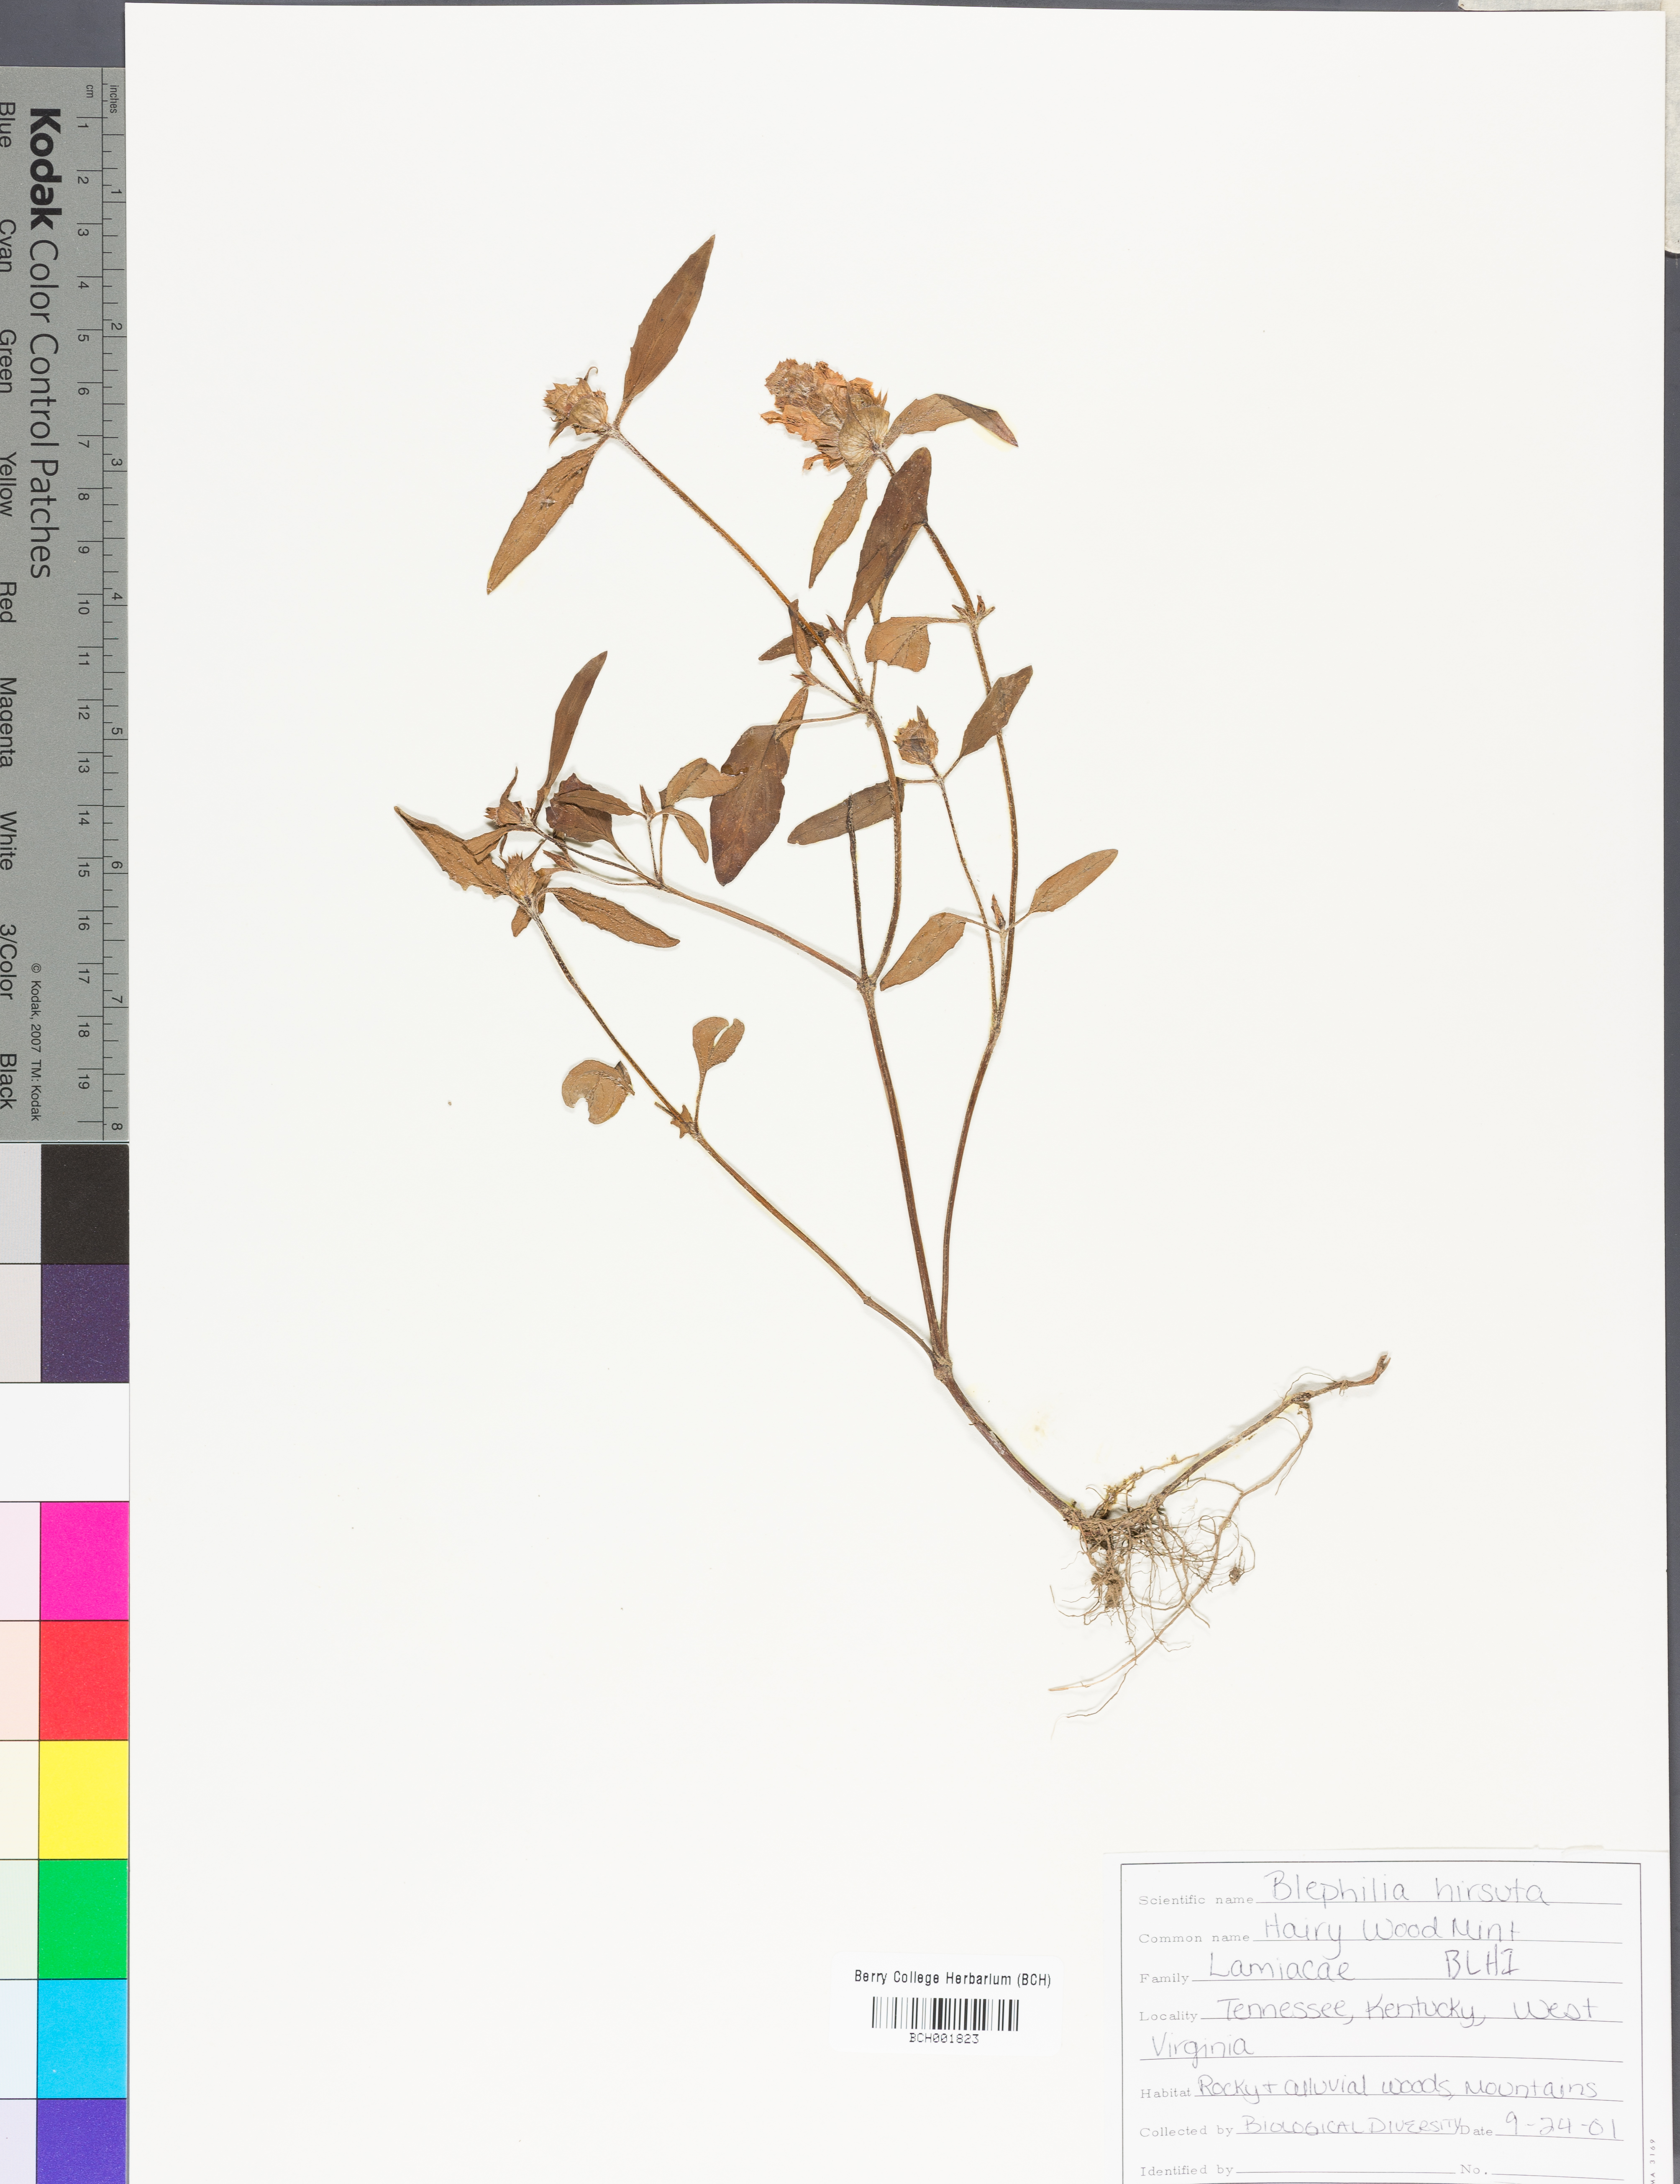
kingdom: Plantae
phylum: Tracheophyta
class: Magnoliopsida
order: Lamiales
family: Lamiaceae
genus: Blephilia
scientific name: Blephilia hirsuta
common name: Hairy blephilia
